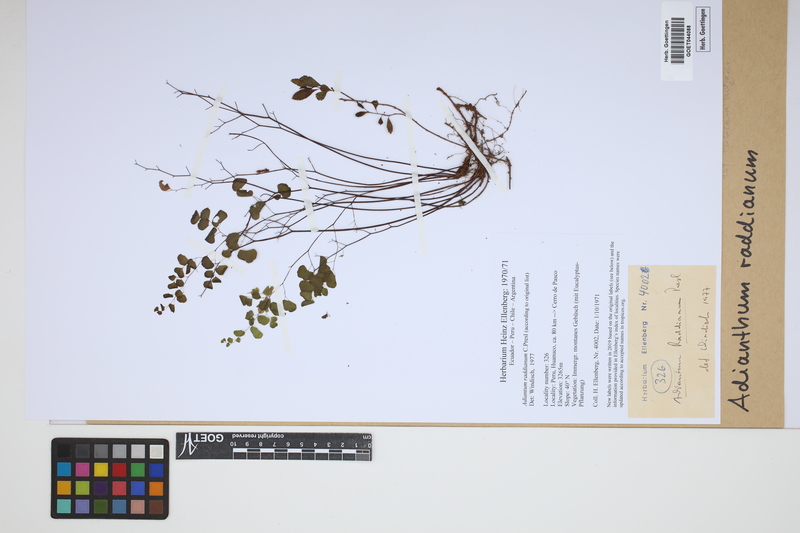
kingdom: Plantae
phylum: Tracheophyta
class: Polypodiopsida
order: Polypodiales
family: Pteridaceae
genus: Adiantum
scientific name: Adiantum raddianum
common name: Delta maidenhair fern
